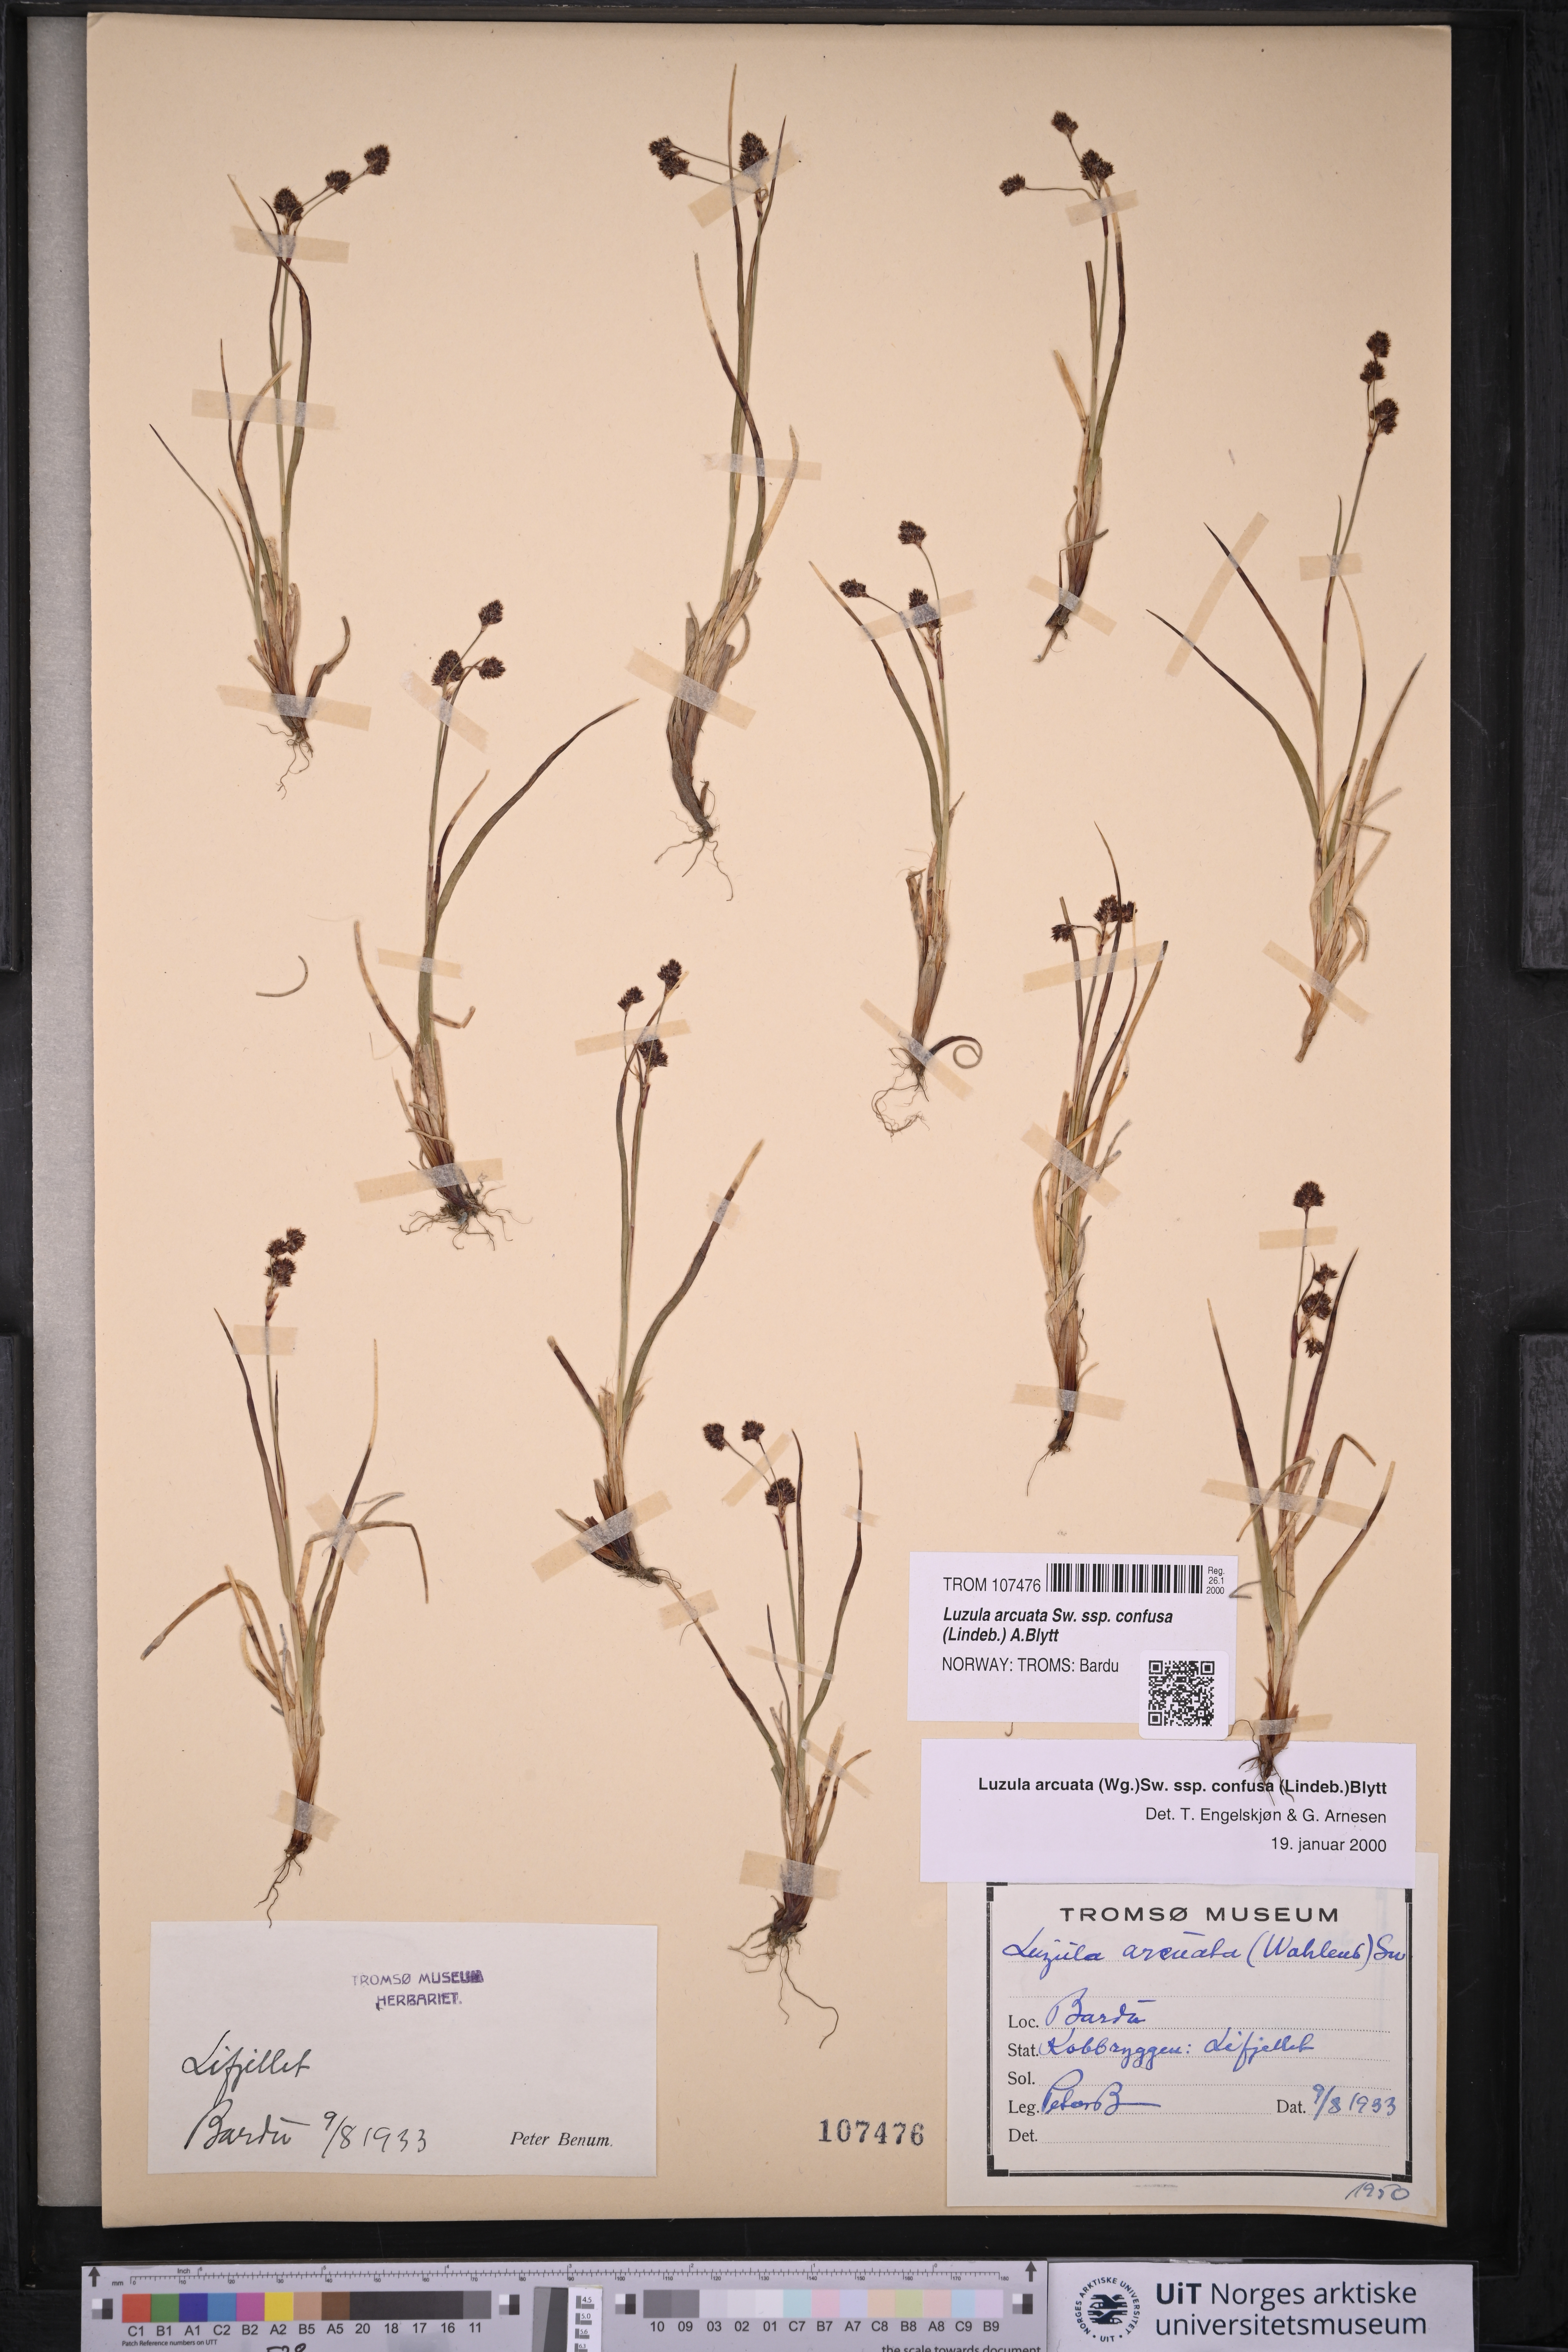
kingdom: Plantae
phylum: Tracheophyta
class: Liliopsida
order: Poales
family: Juncaceae
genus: Luzula
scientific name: Luzula confusa
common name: Northern wood rush
